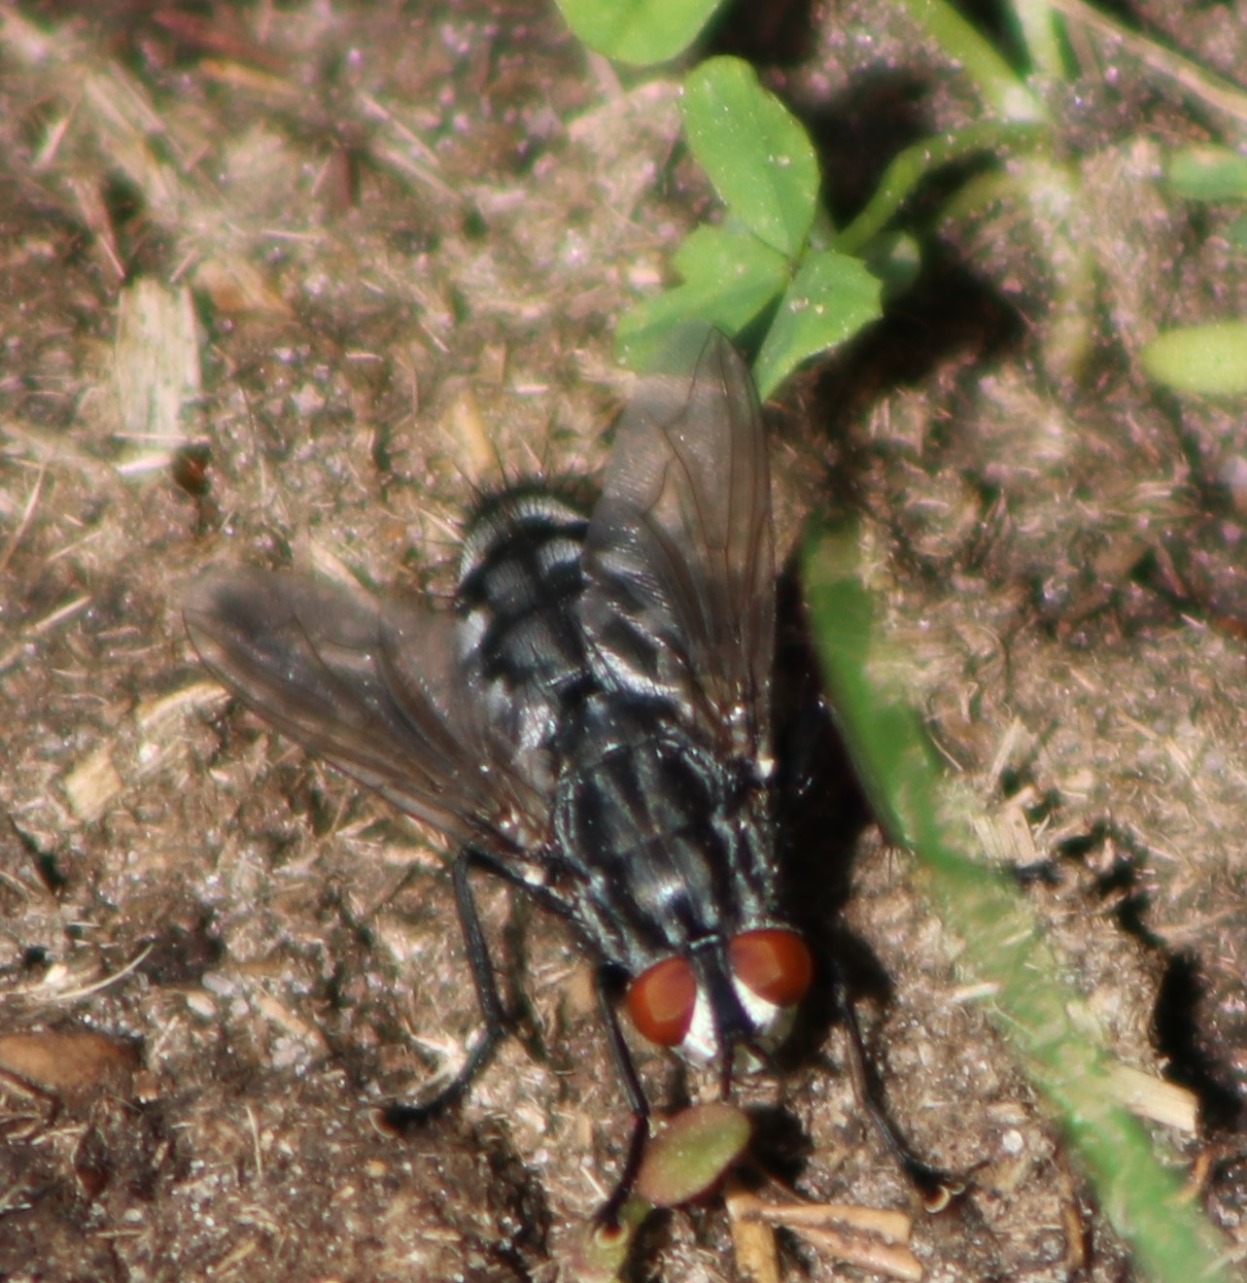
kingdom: Animalia
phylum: Arthropoda
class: Insecta
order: Diptera
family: Sarcophagidae
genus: Sarcophaga
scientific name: Sarcophaga
